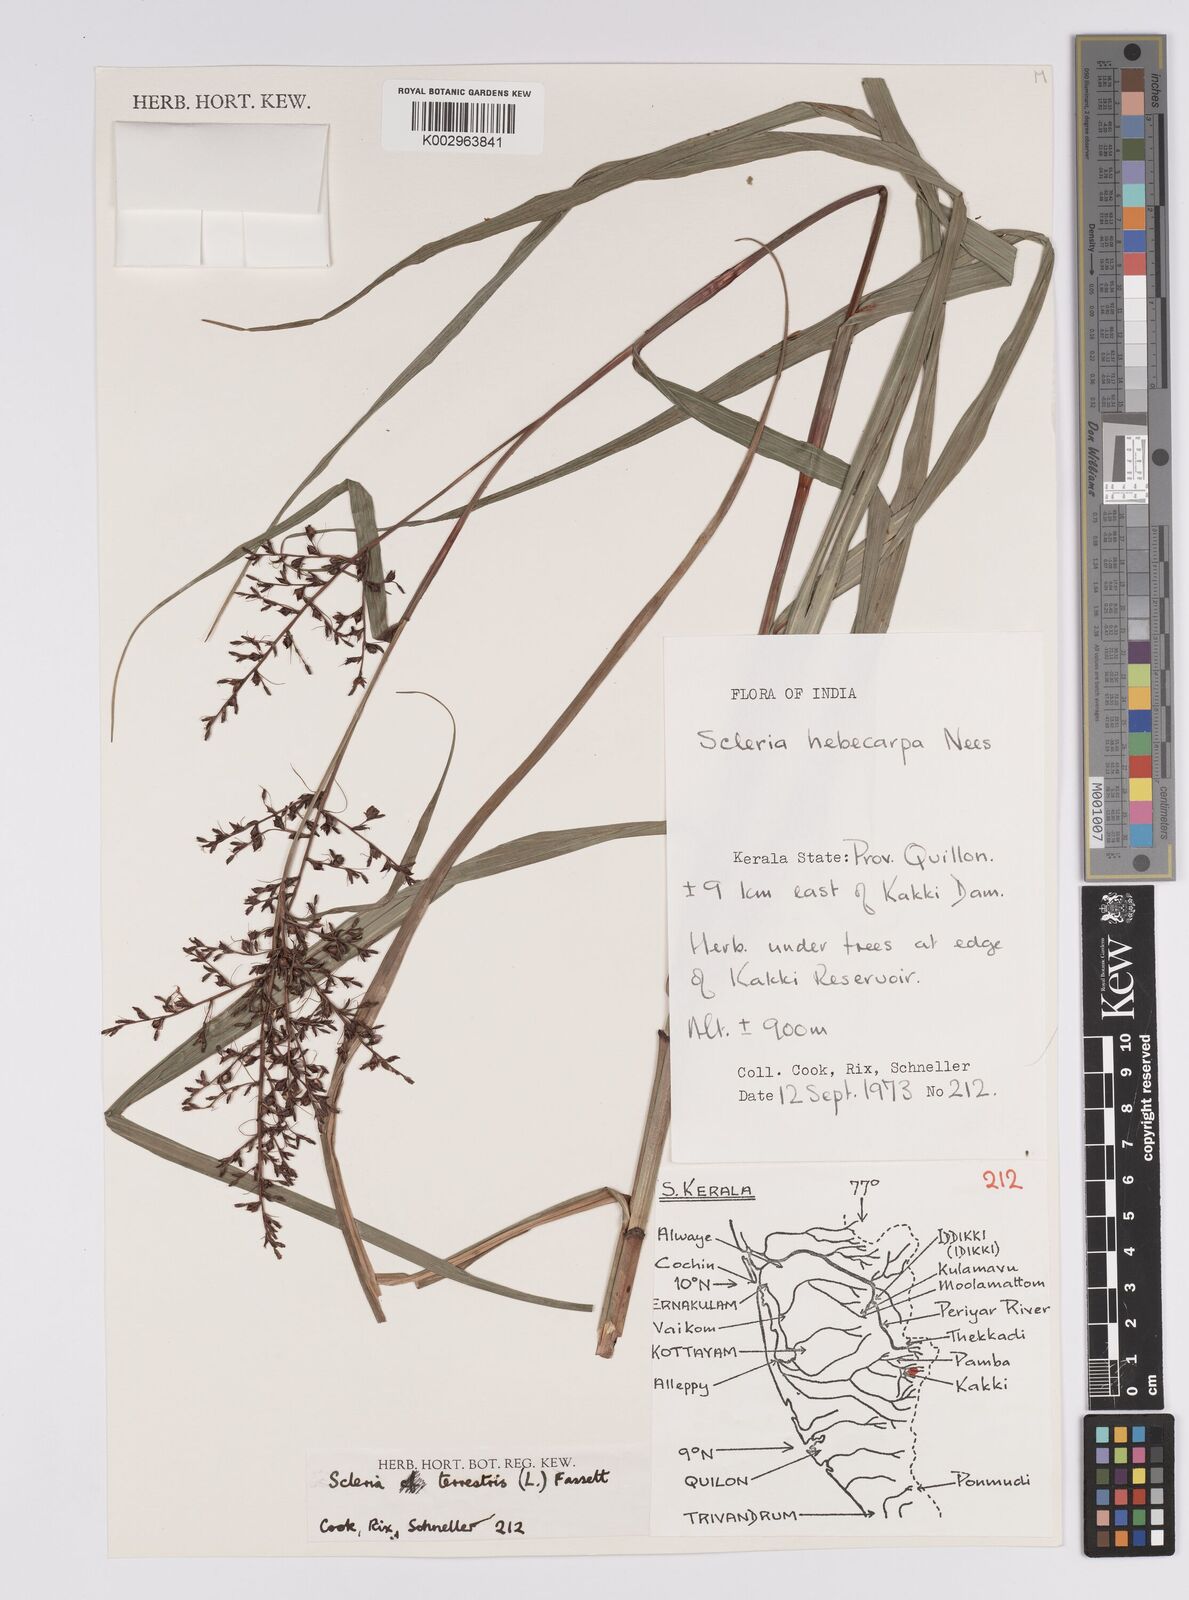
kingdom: Plantae
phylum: Tracheophyta
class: Liliopsida
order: Poales
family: Cyperaceae
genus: Scleria
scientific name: Scleria terrestris
